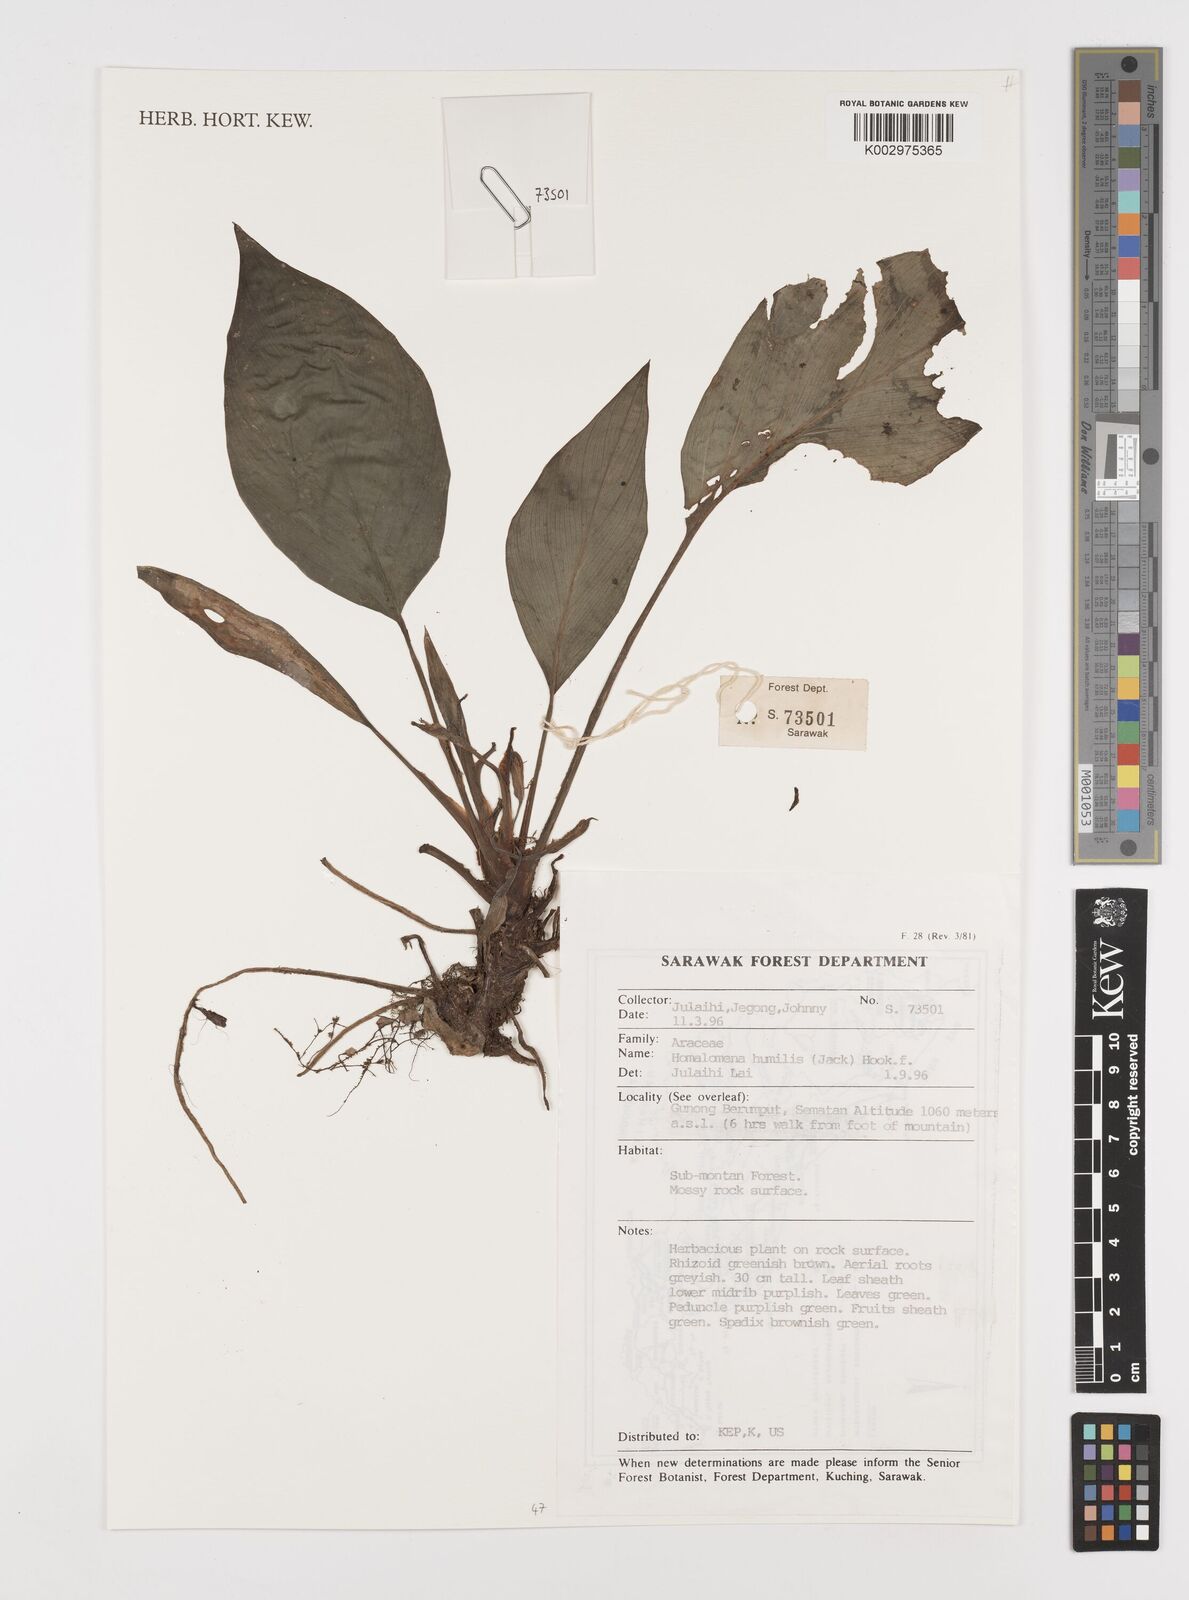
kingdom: Plantae
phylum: Tracheophyta
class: Liliopsida
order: Alismatales
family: Araceae
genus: Homalomena
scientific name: Homalomena humilis
